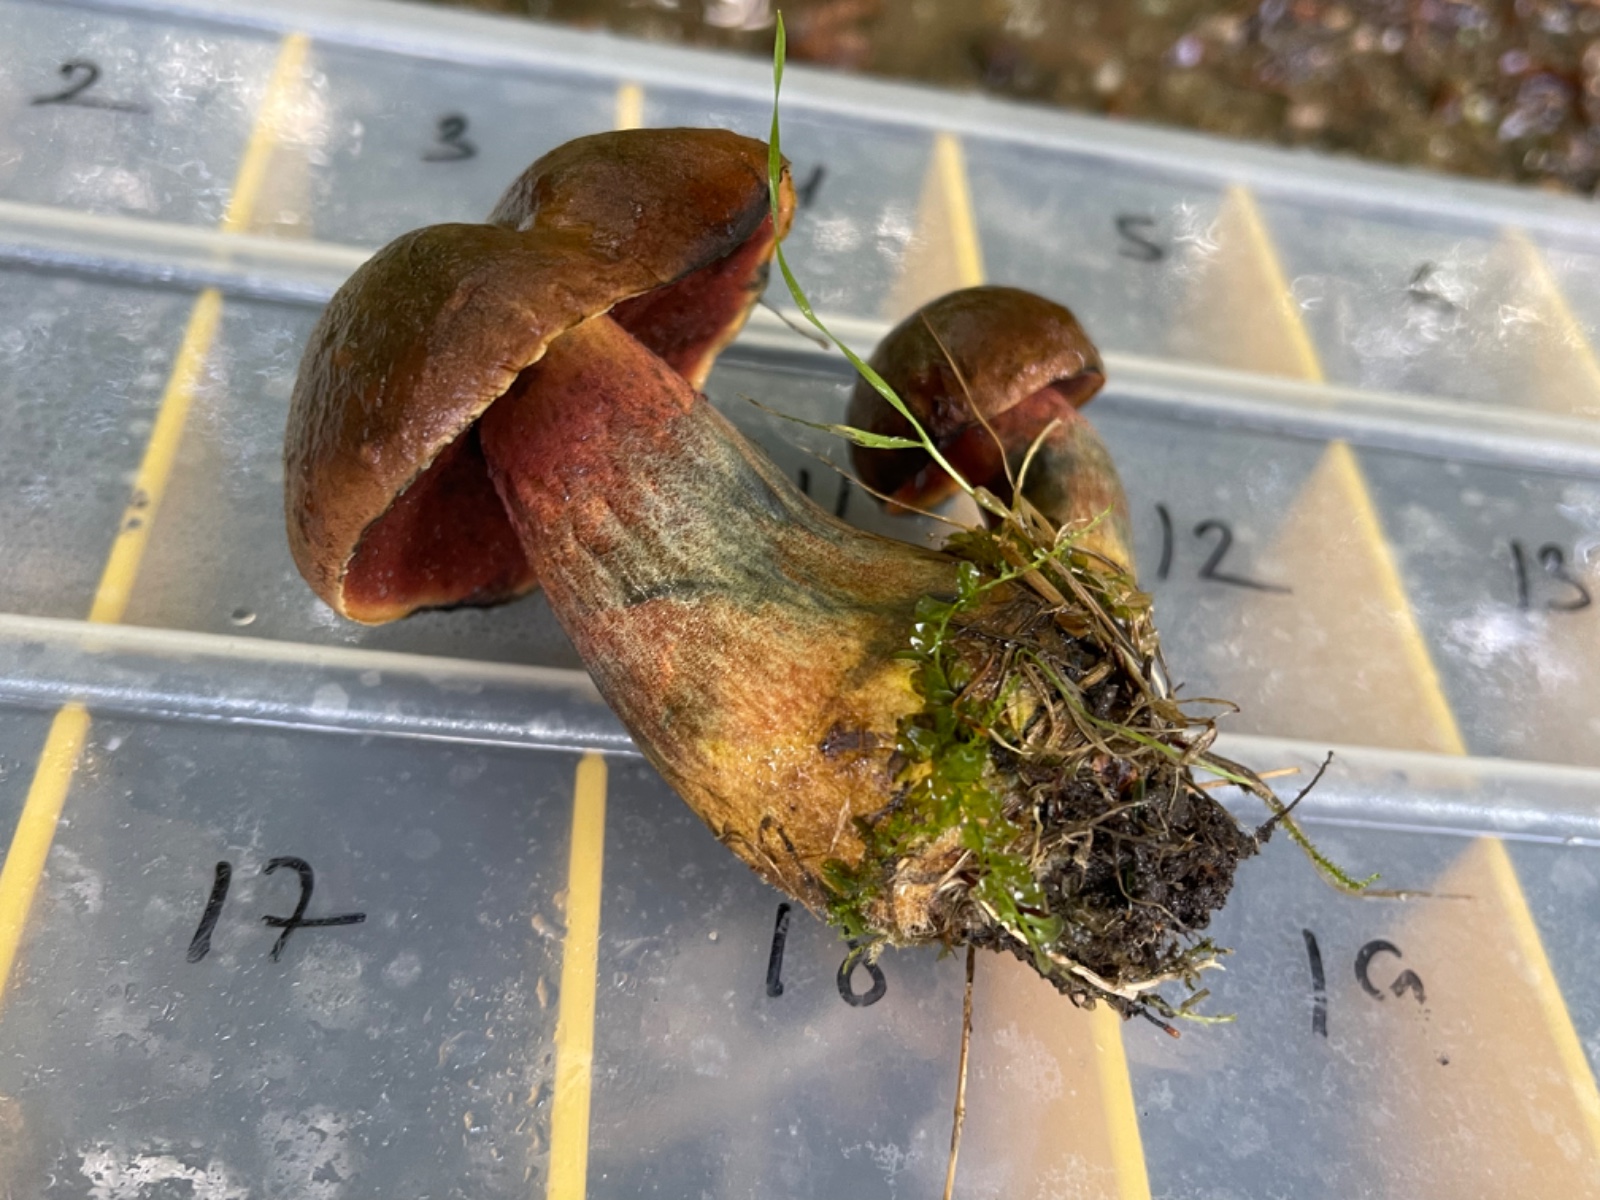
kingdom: Fungi
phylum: Basidiomycota
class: Agaricomycetes
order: Boletales
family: Boletaceae
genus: Neoboletus
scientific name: Neoboletus erythropus
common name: punktstokket indigorørhat
